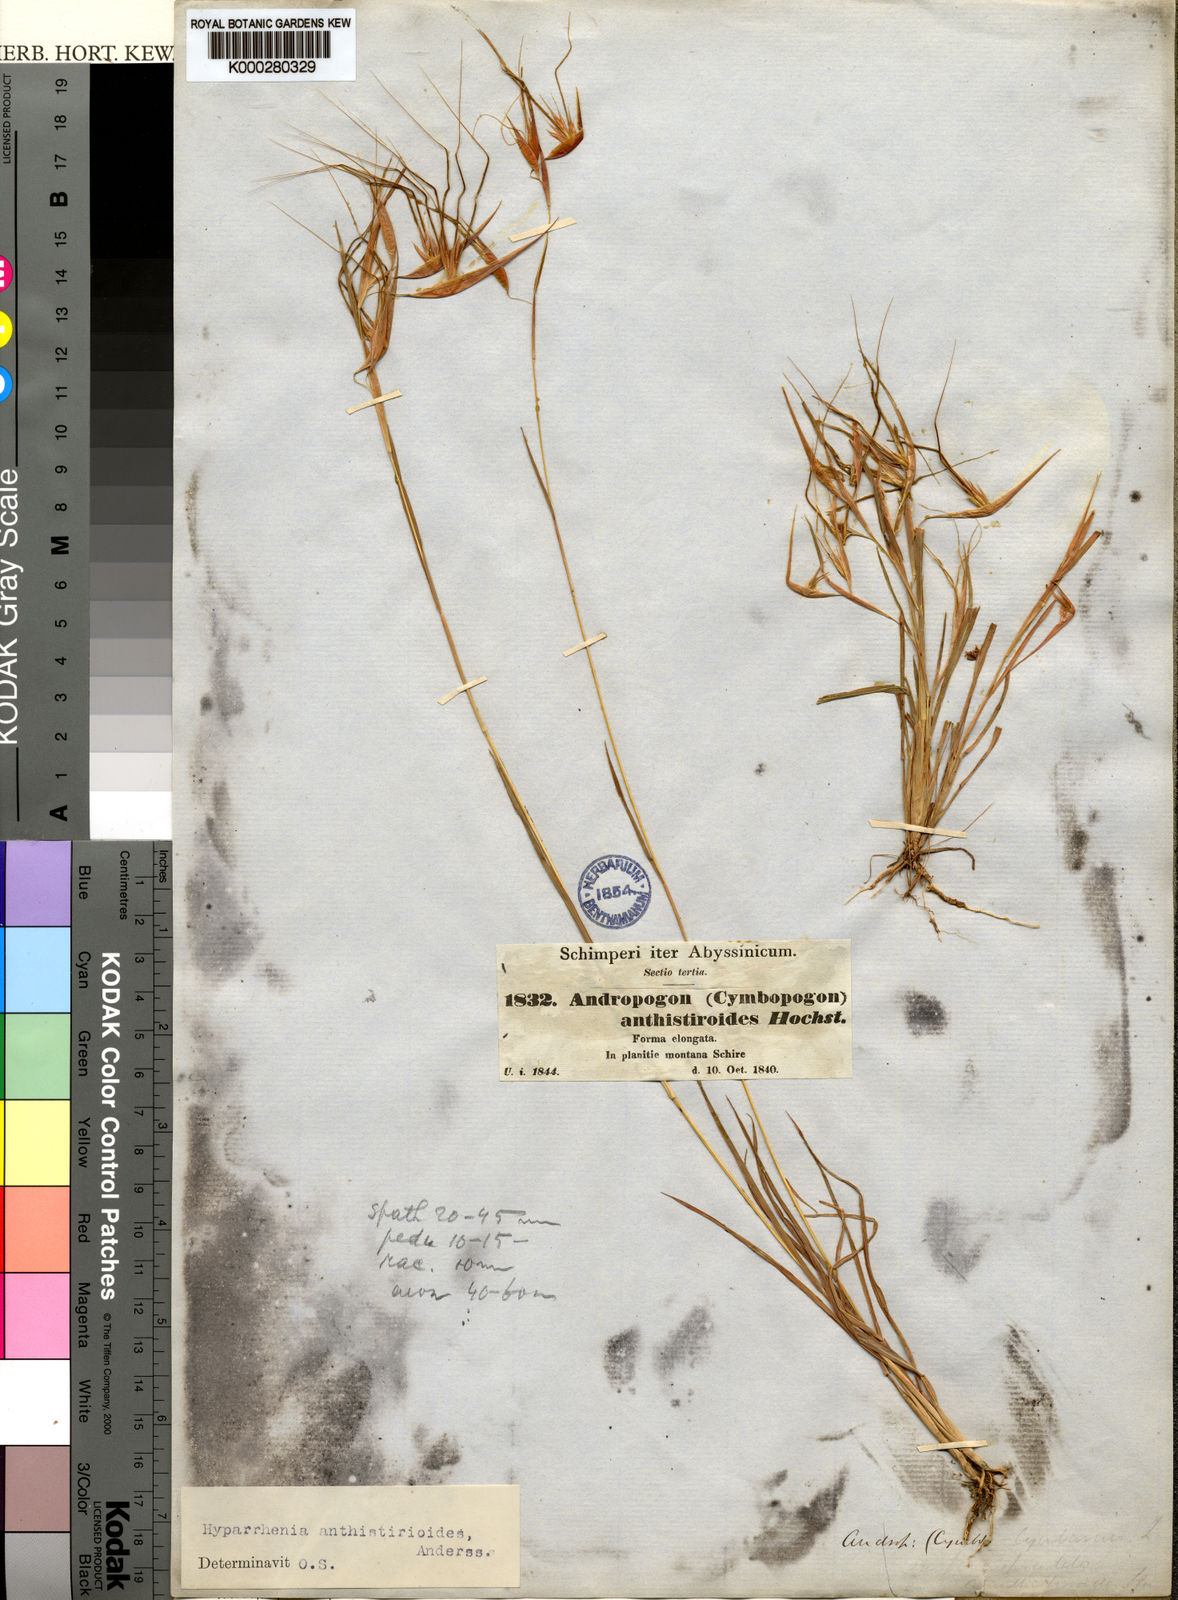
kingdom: Plantae
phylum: Tracheophyta
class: Liliopsida
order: Poales
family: Poaceae
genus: Hyparrhenia
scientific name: Hyparrhenia
